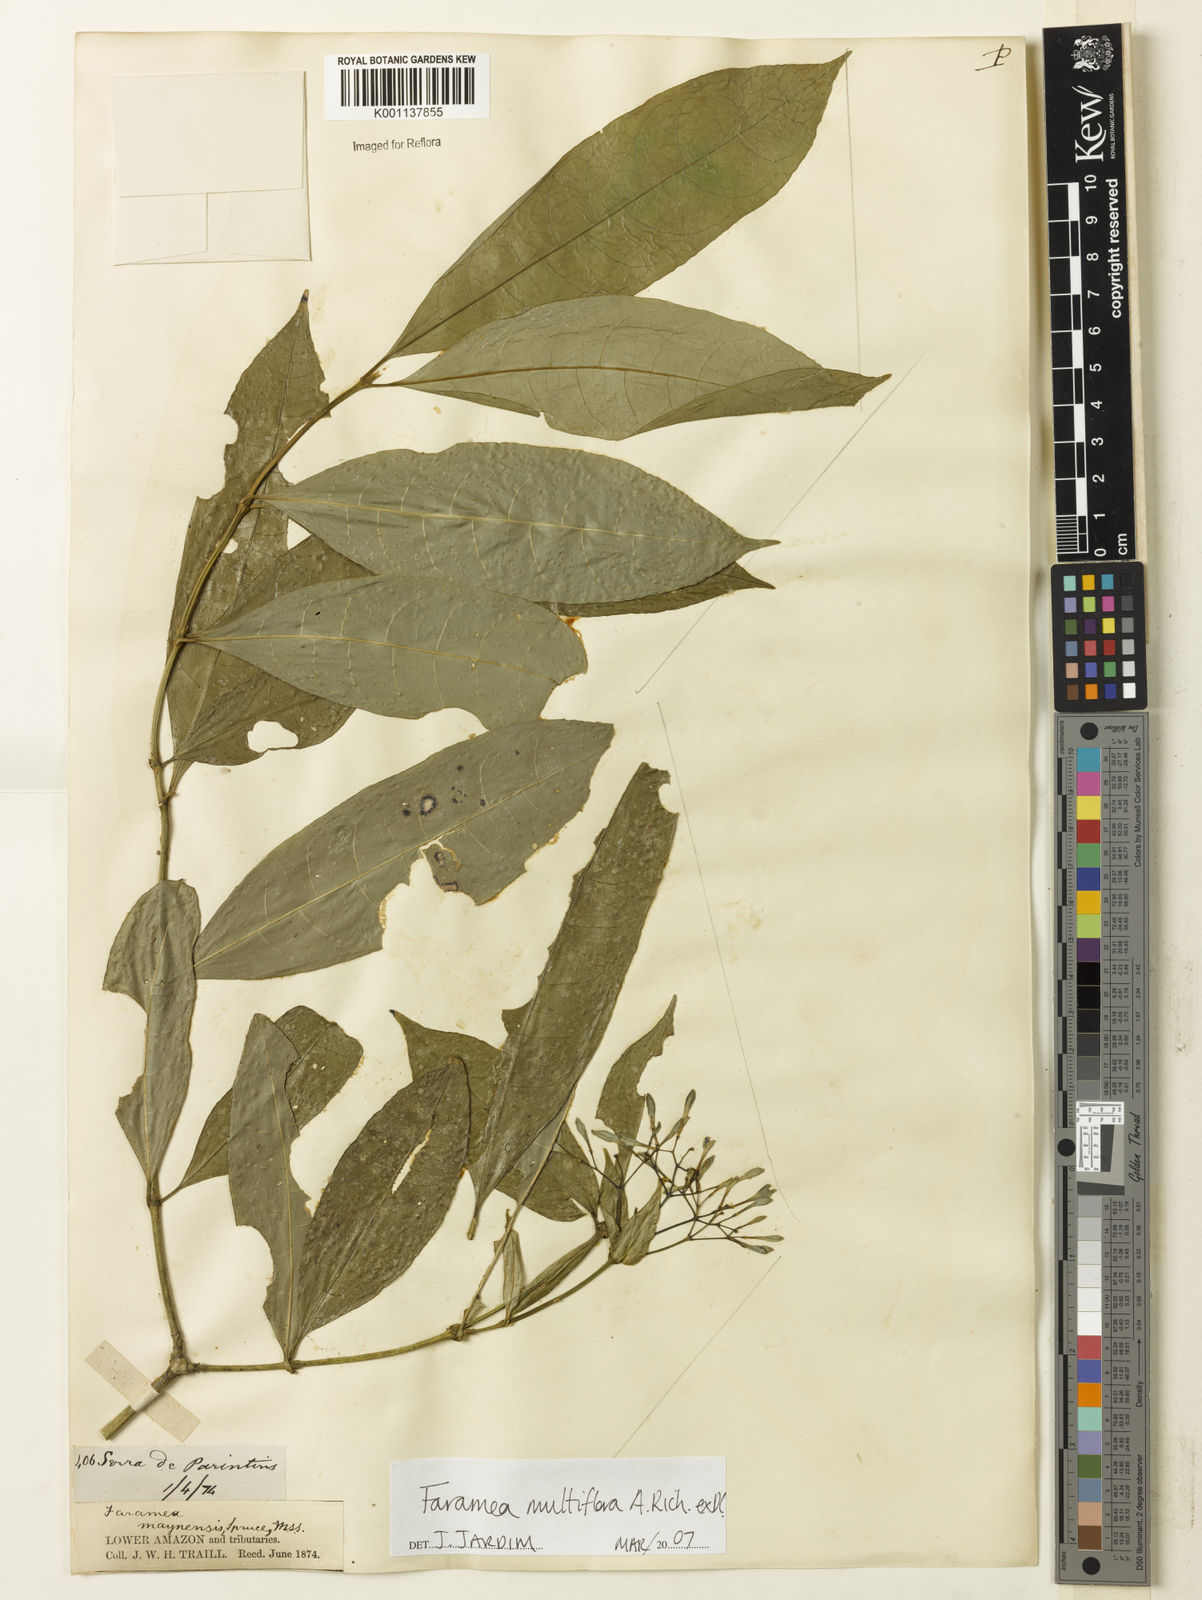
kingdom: Plantae
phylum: Tracheophyta
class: Magnoliopsida
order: Gentianales
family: Rubiaceae
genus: Faramea
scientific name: Faramea multiflora
